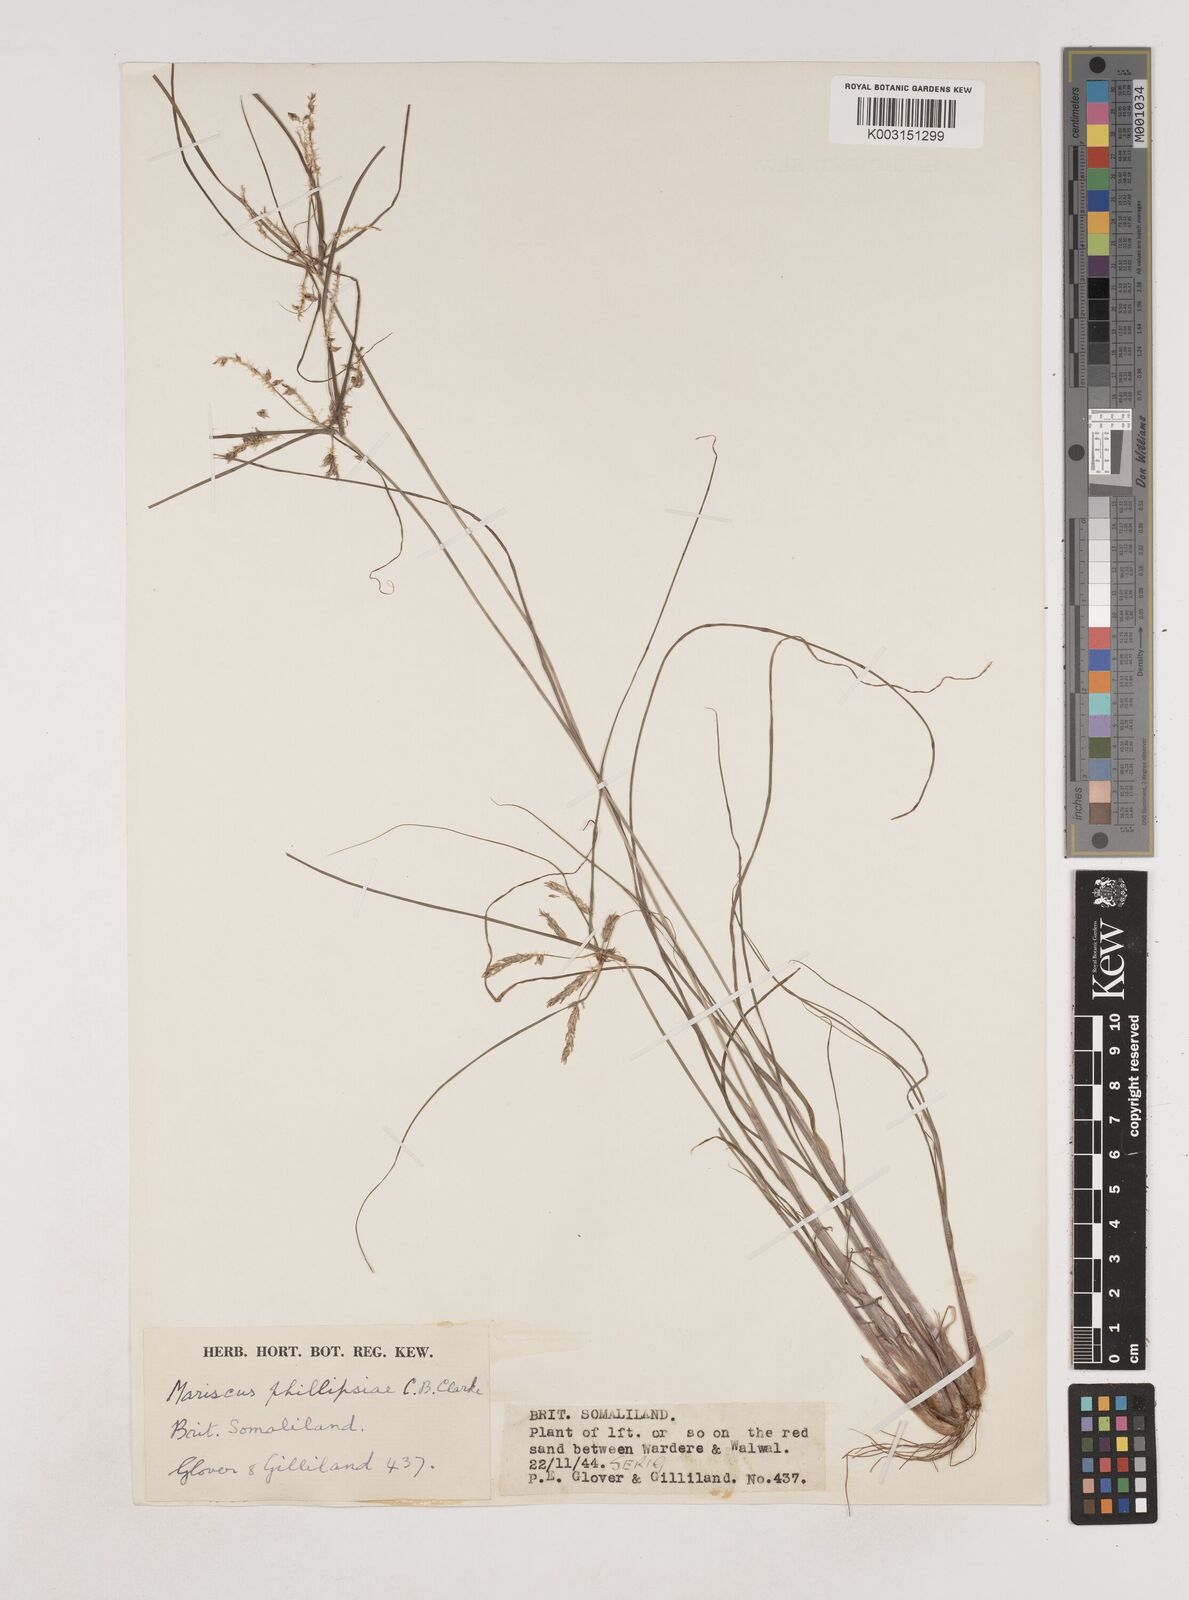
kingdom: Plantae
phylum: Tracheophyta
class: Liliopsida
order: Poales
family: Cyperaceae
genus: Cyperus
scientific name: Cyperus phillipsiae
